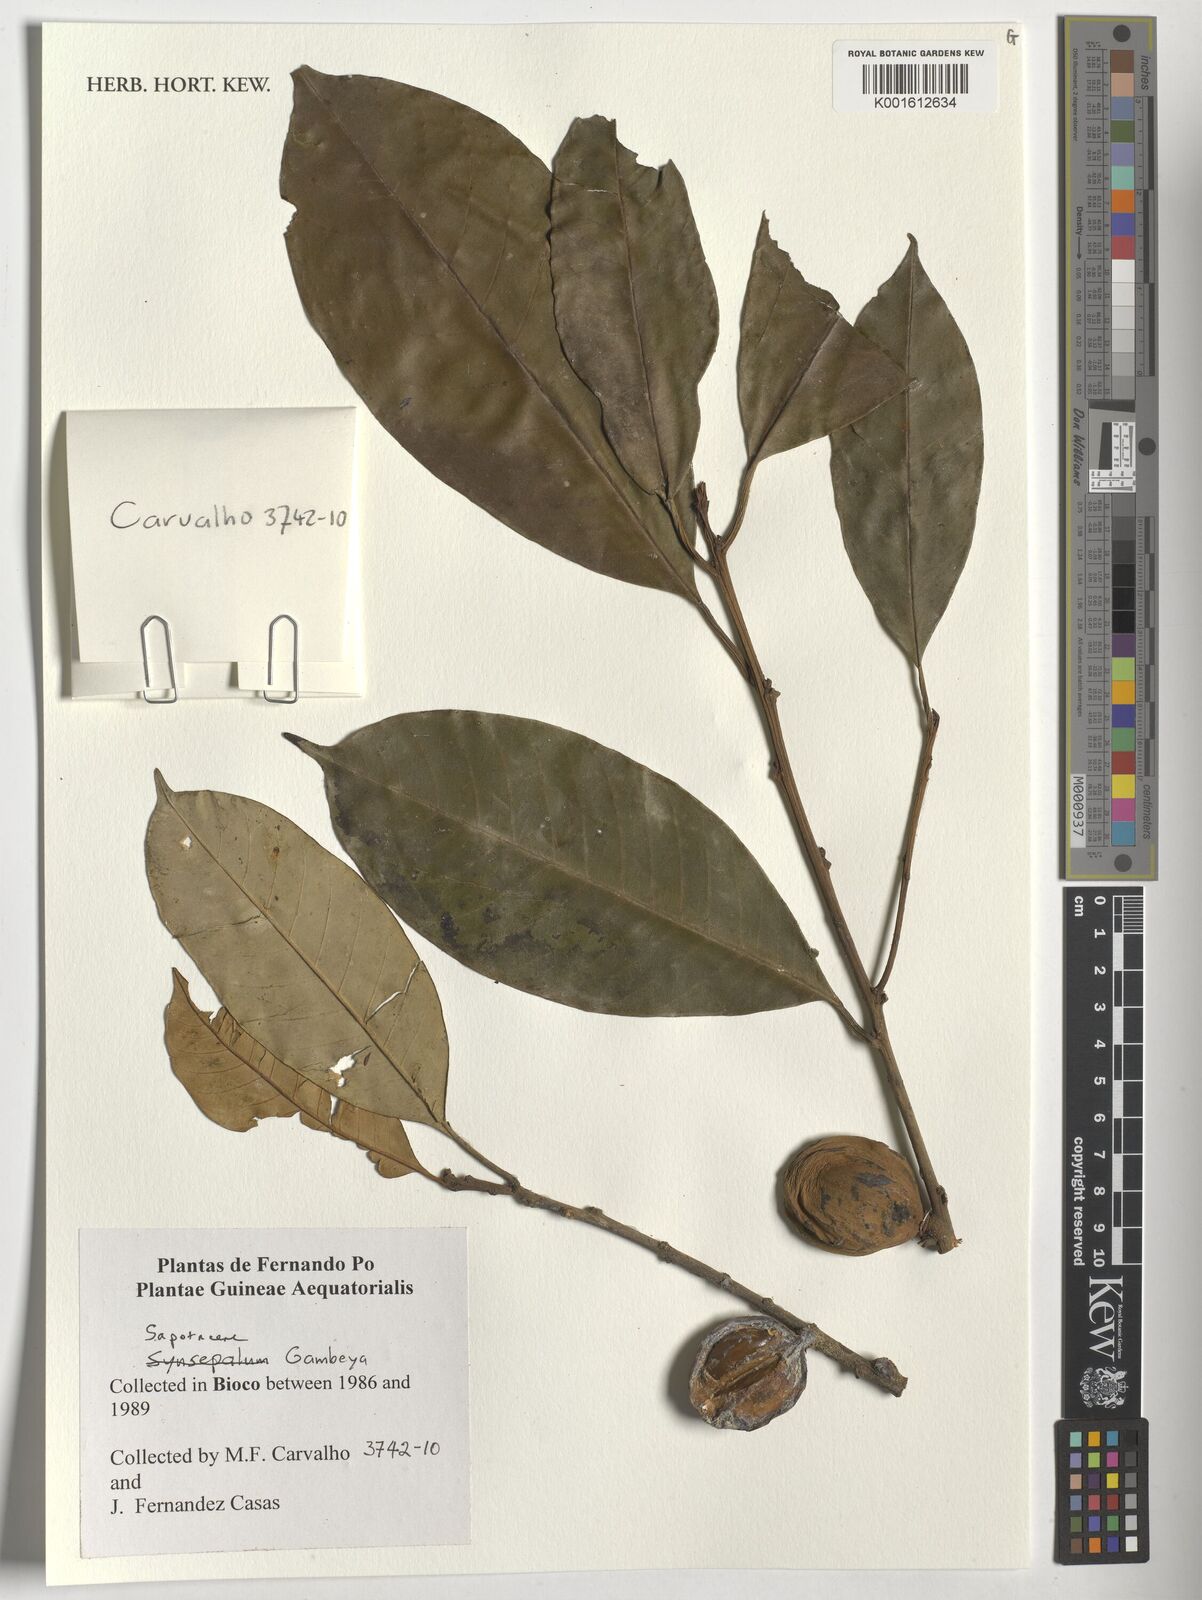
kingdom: Plantae
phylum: Tracheophyta
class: Magnoliopsida
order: Ericales
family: Sapotaceae
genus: Gambeya
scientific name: Gambeya
